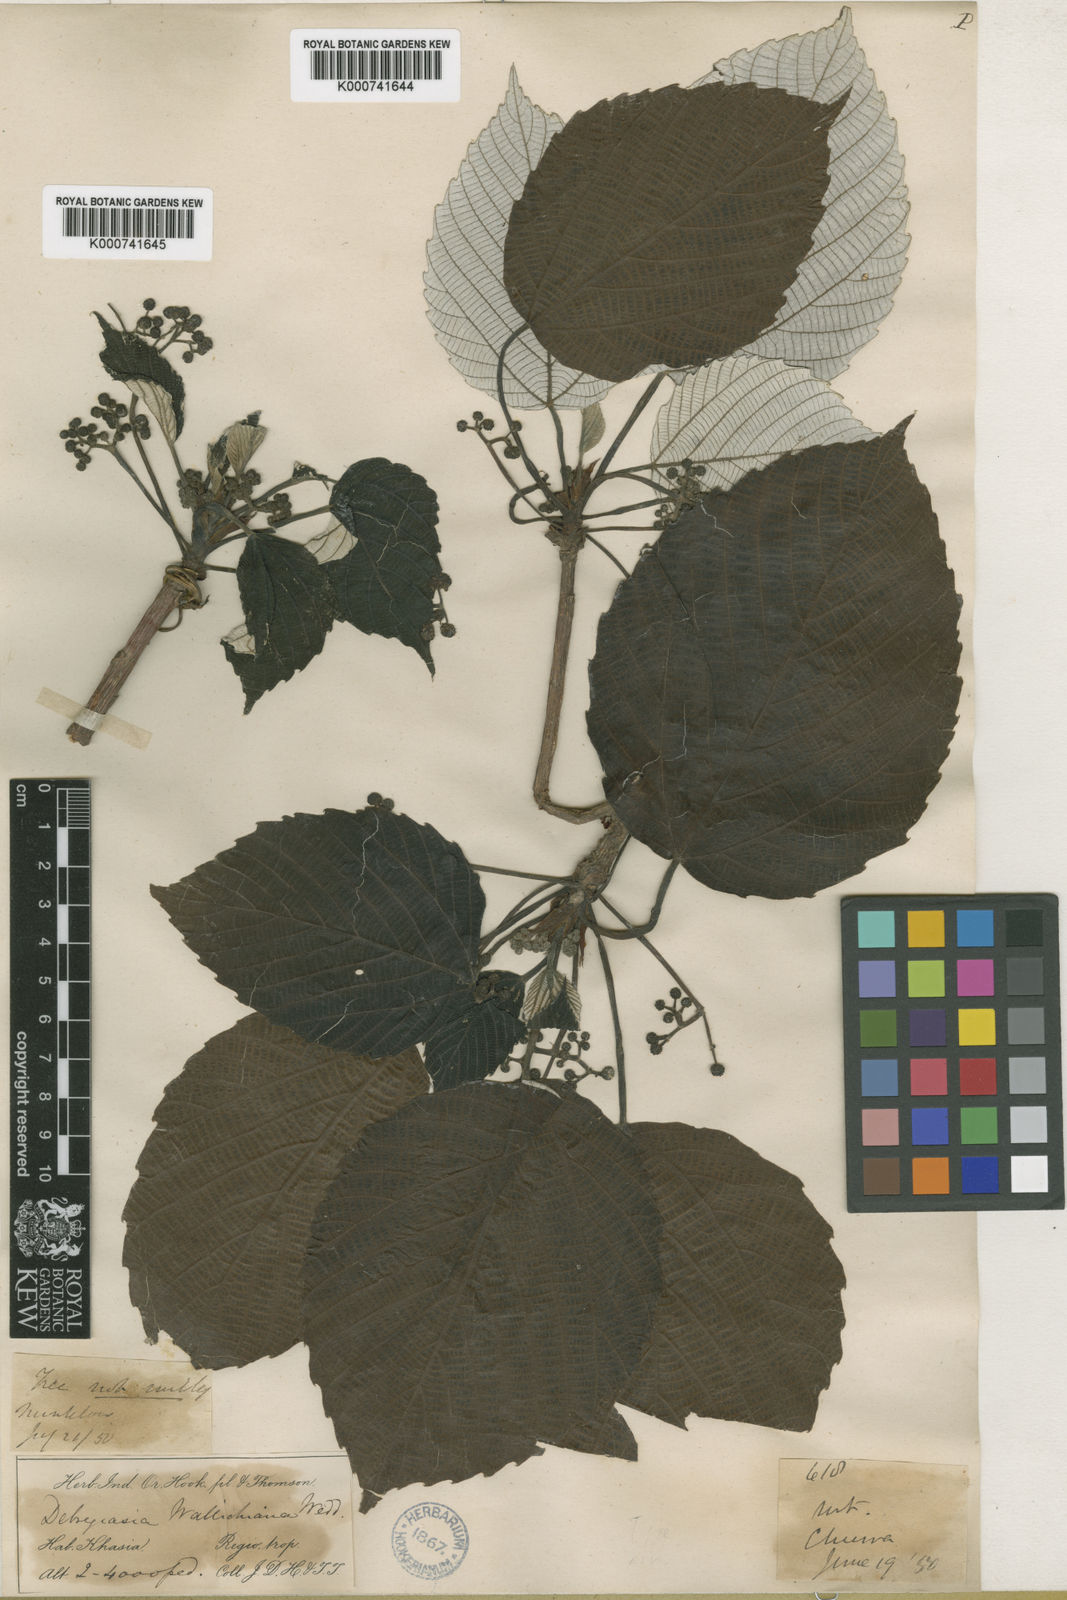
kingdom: Plantae
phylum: Tracheophyta
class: Magnoliopsida
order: Rosales
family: Urticaceae
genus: Debregeasia
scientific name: Debregeasia wallichiana
